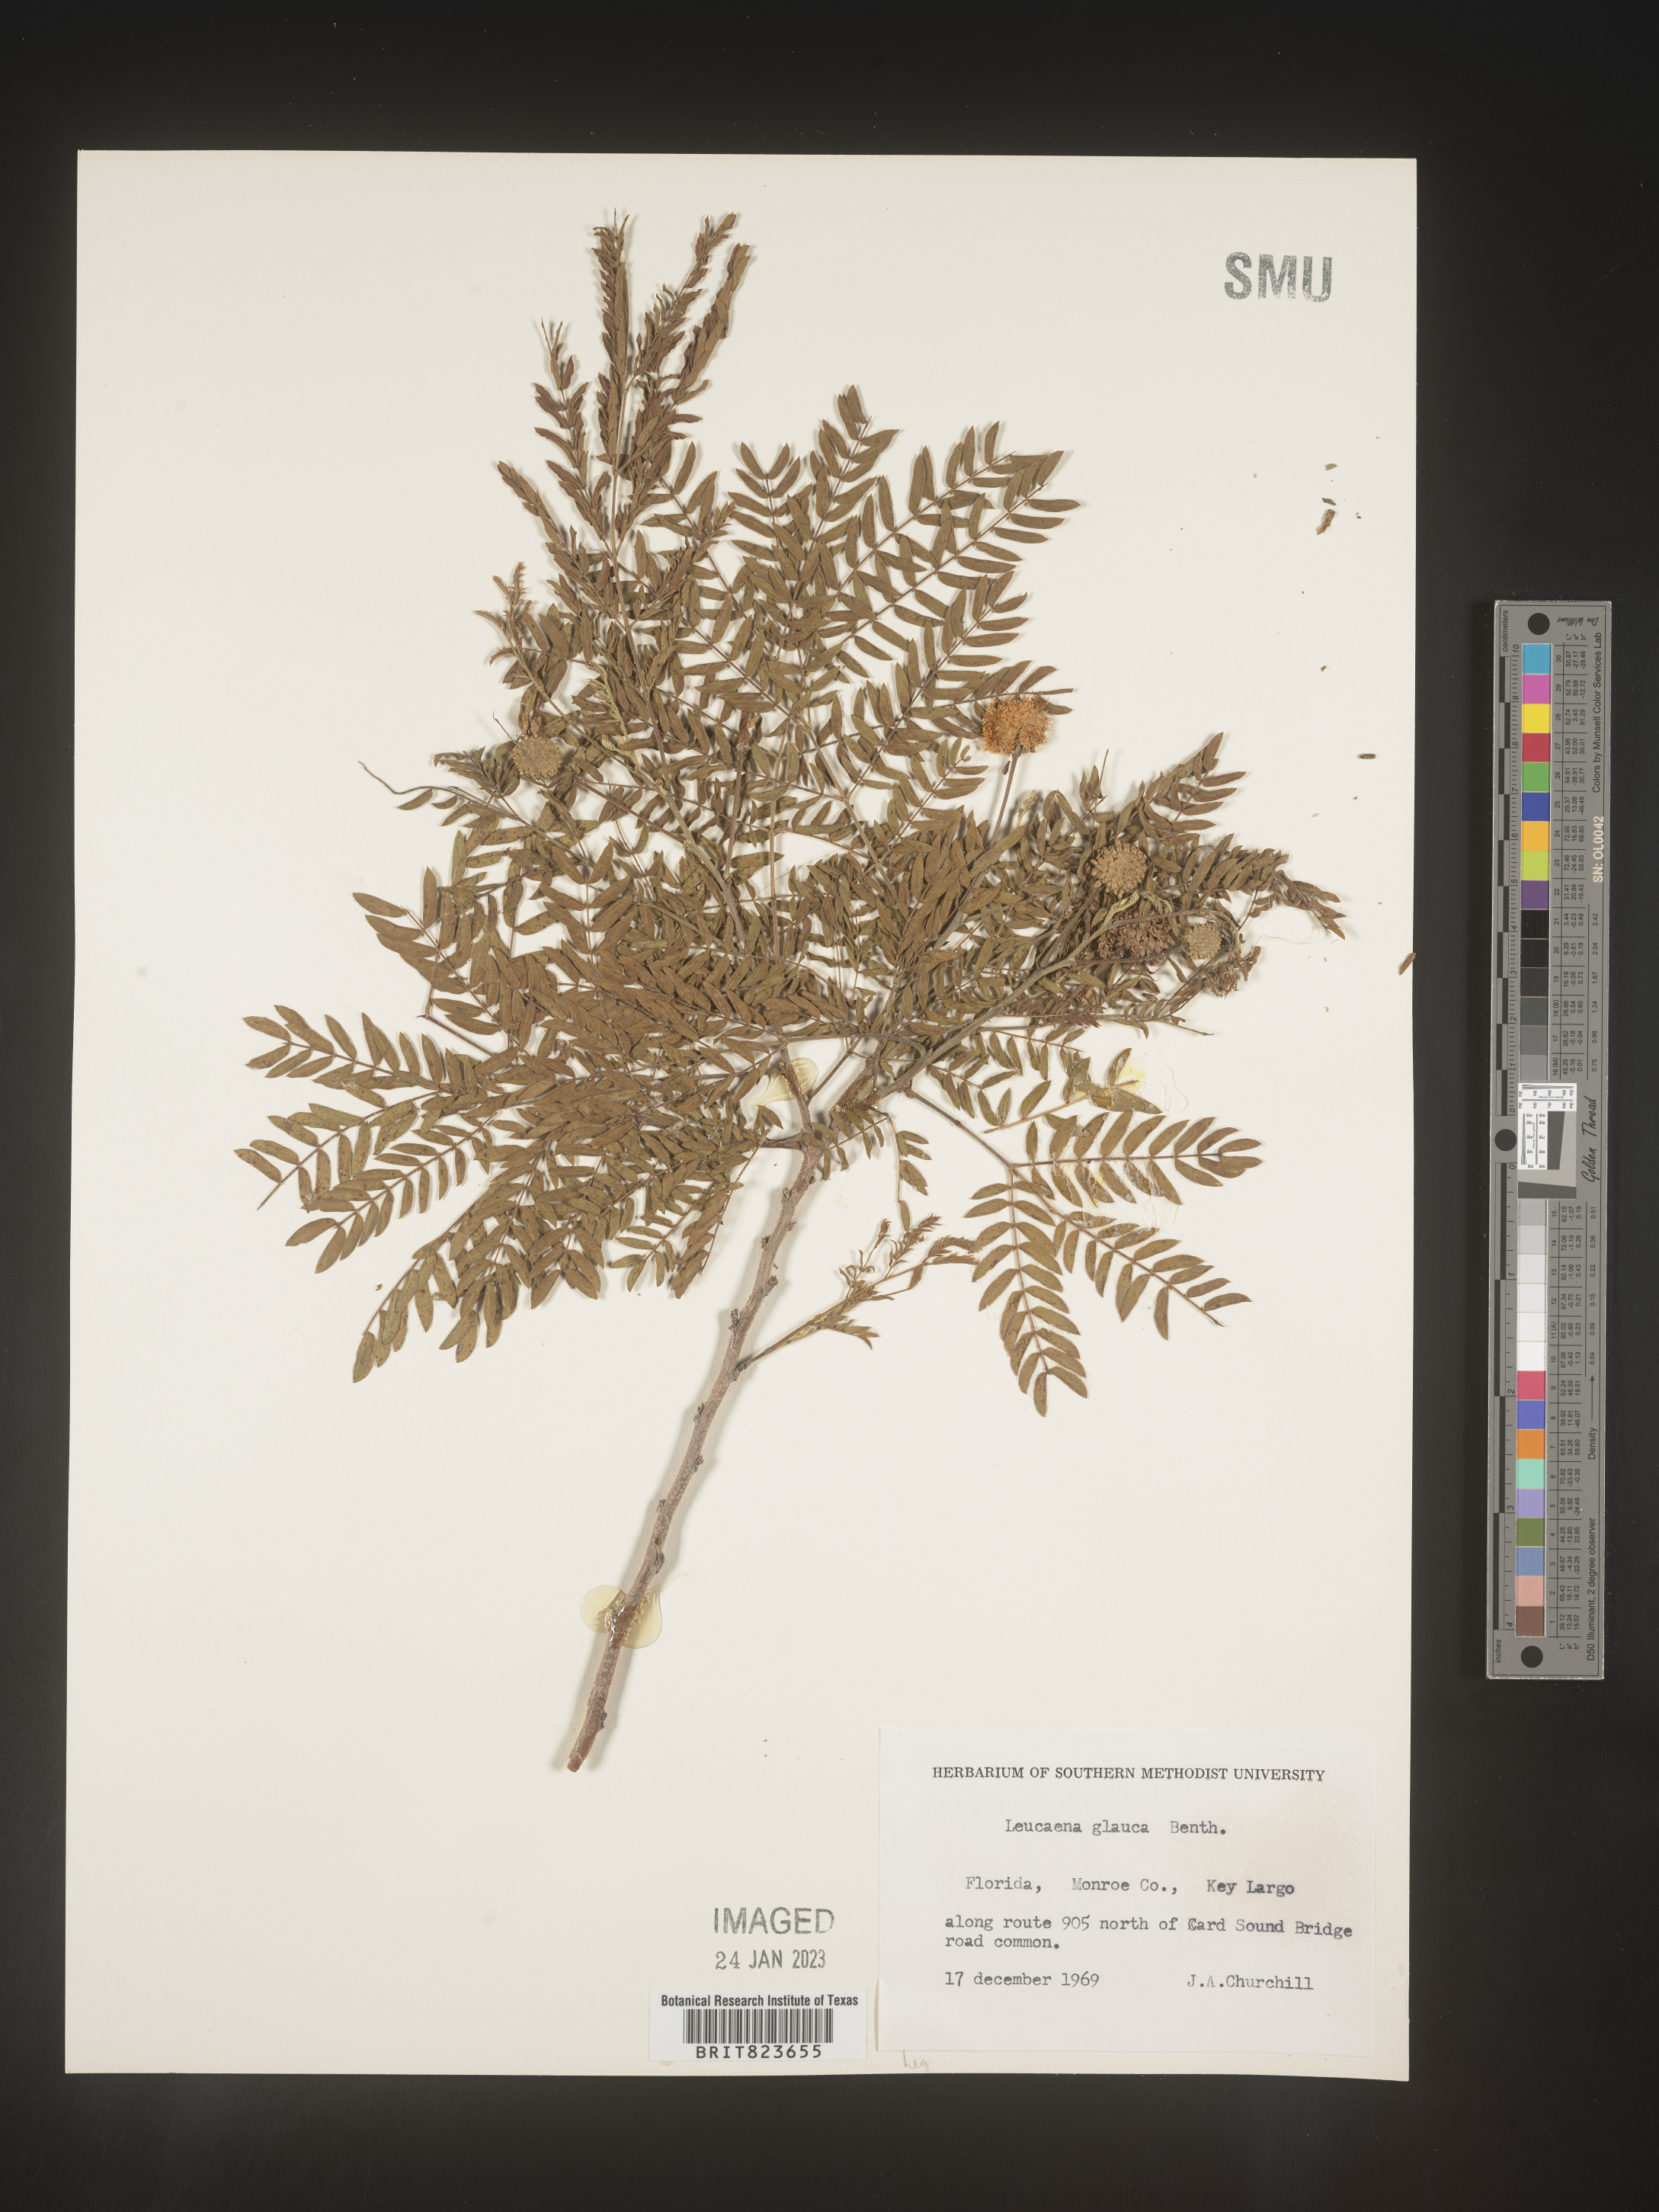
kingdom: Plantae
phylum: Tracheophyta
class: Magnoliopsida
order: Fabales
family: Fabaceae
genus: Leucaena
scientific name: Leucaena
